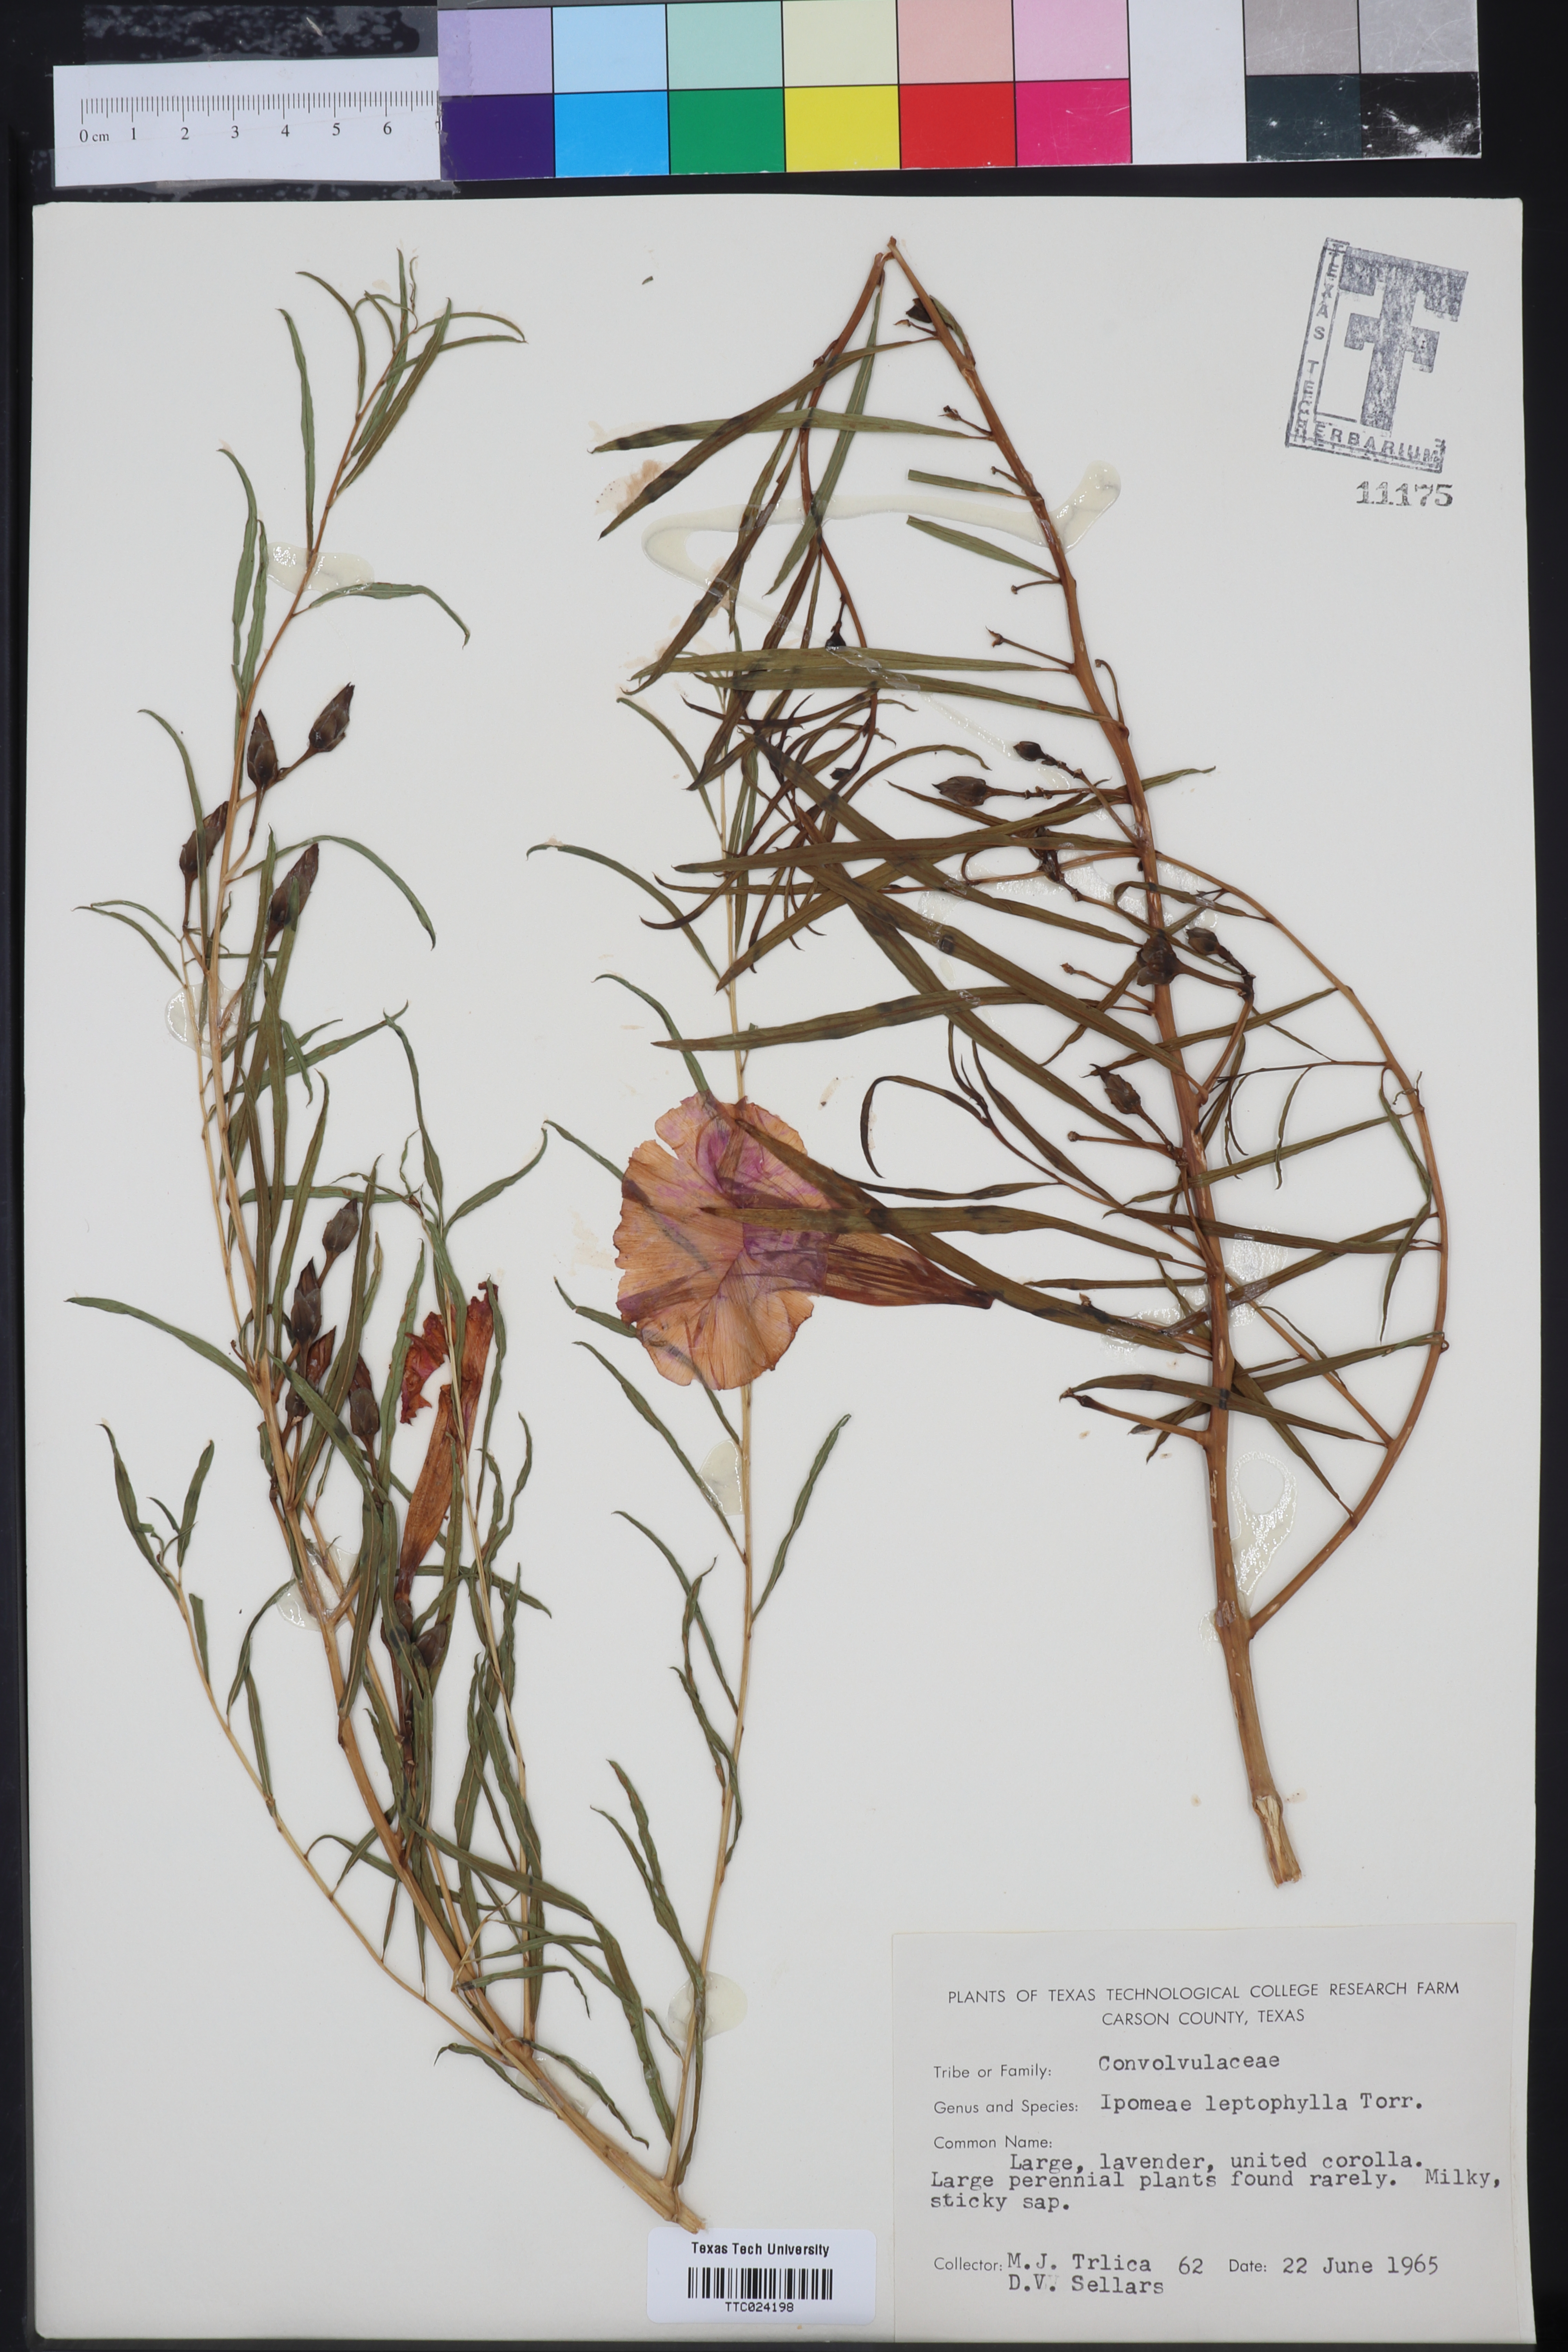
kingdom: Plantae
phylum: Tracheophyta
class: Magnoliopsida
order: Solanales
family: Convolvulaceae
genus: Ipomoea
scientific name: Ipomoea leptophylla
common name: Bush moonflower
